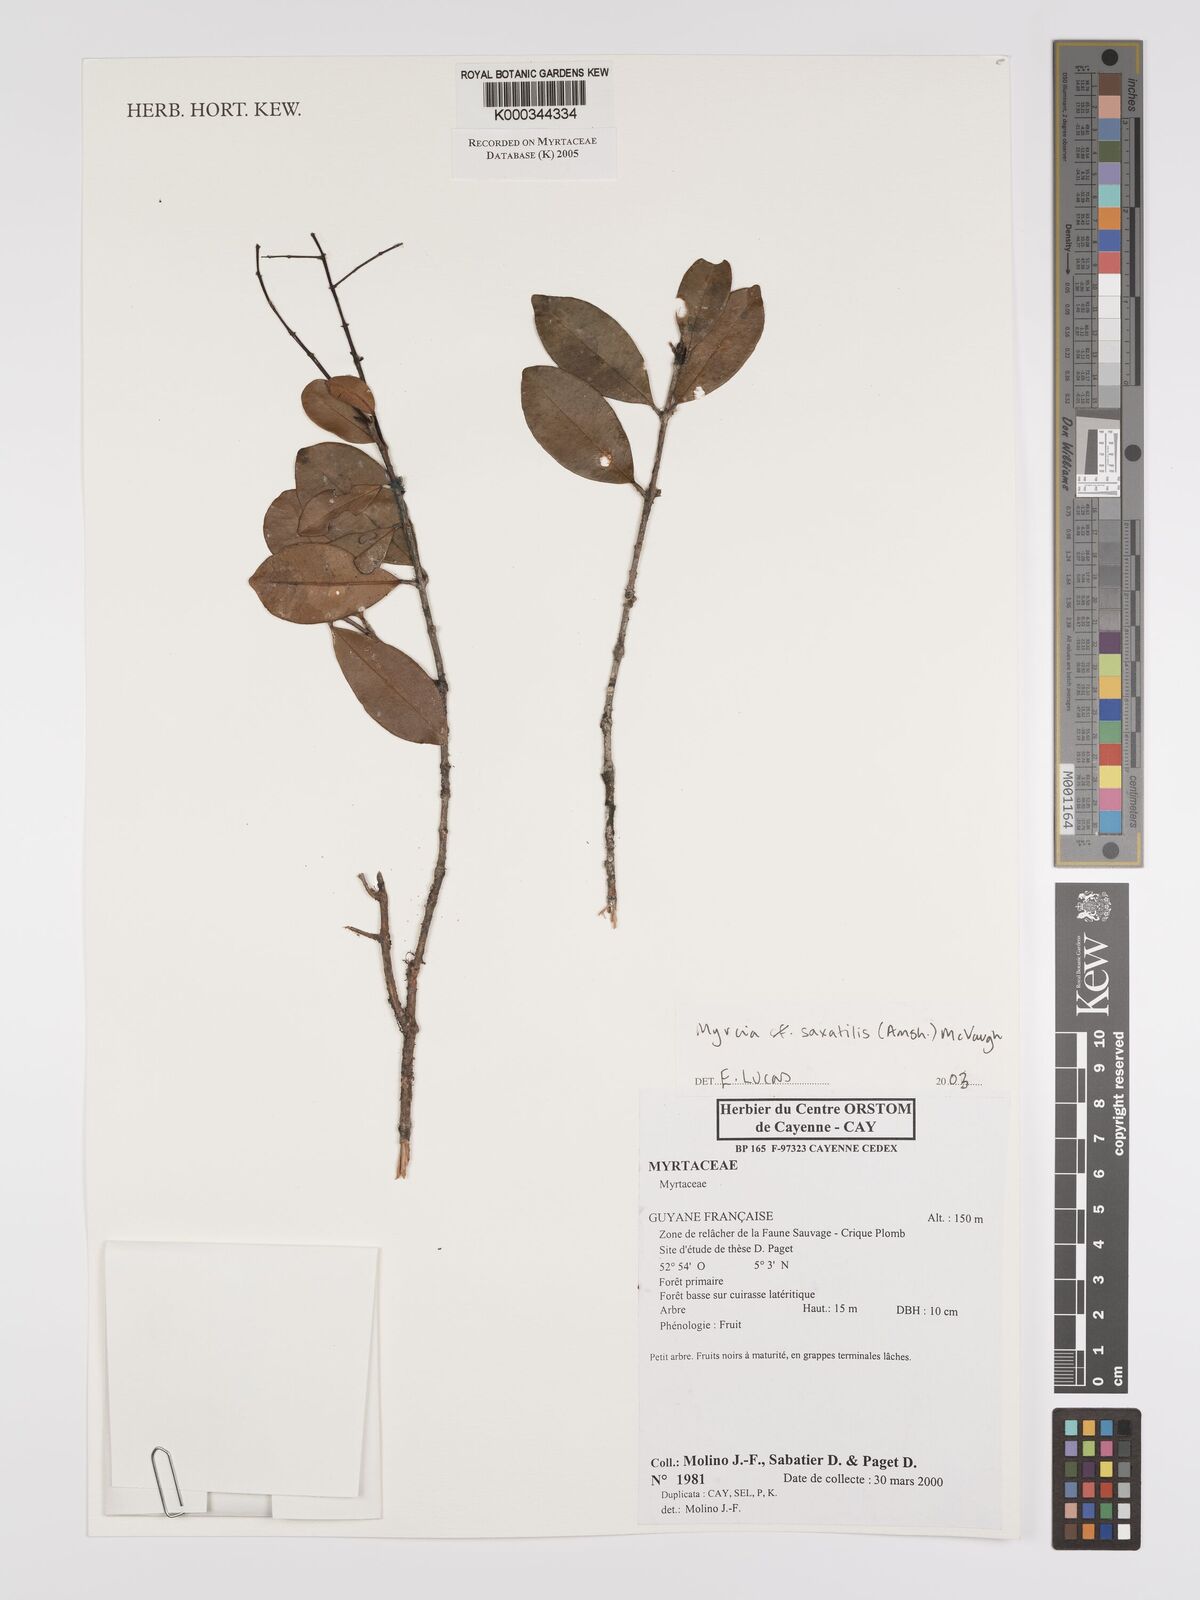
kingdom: Plantae
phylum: Tracheophyta
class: Magnoliopsida
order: Myrtales
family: Myrtaceae
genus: Myrcia
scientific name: Myrcia saxatilis
